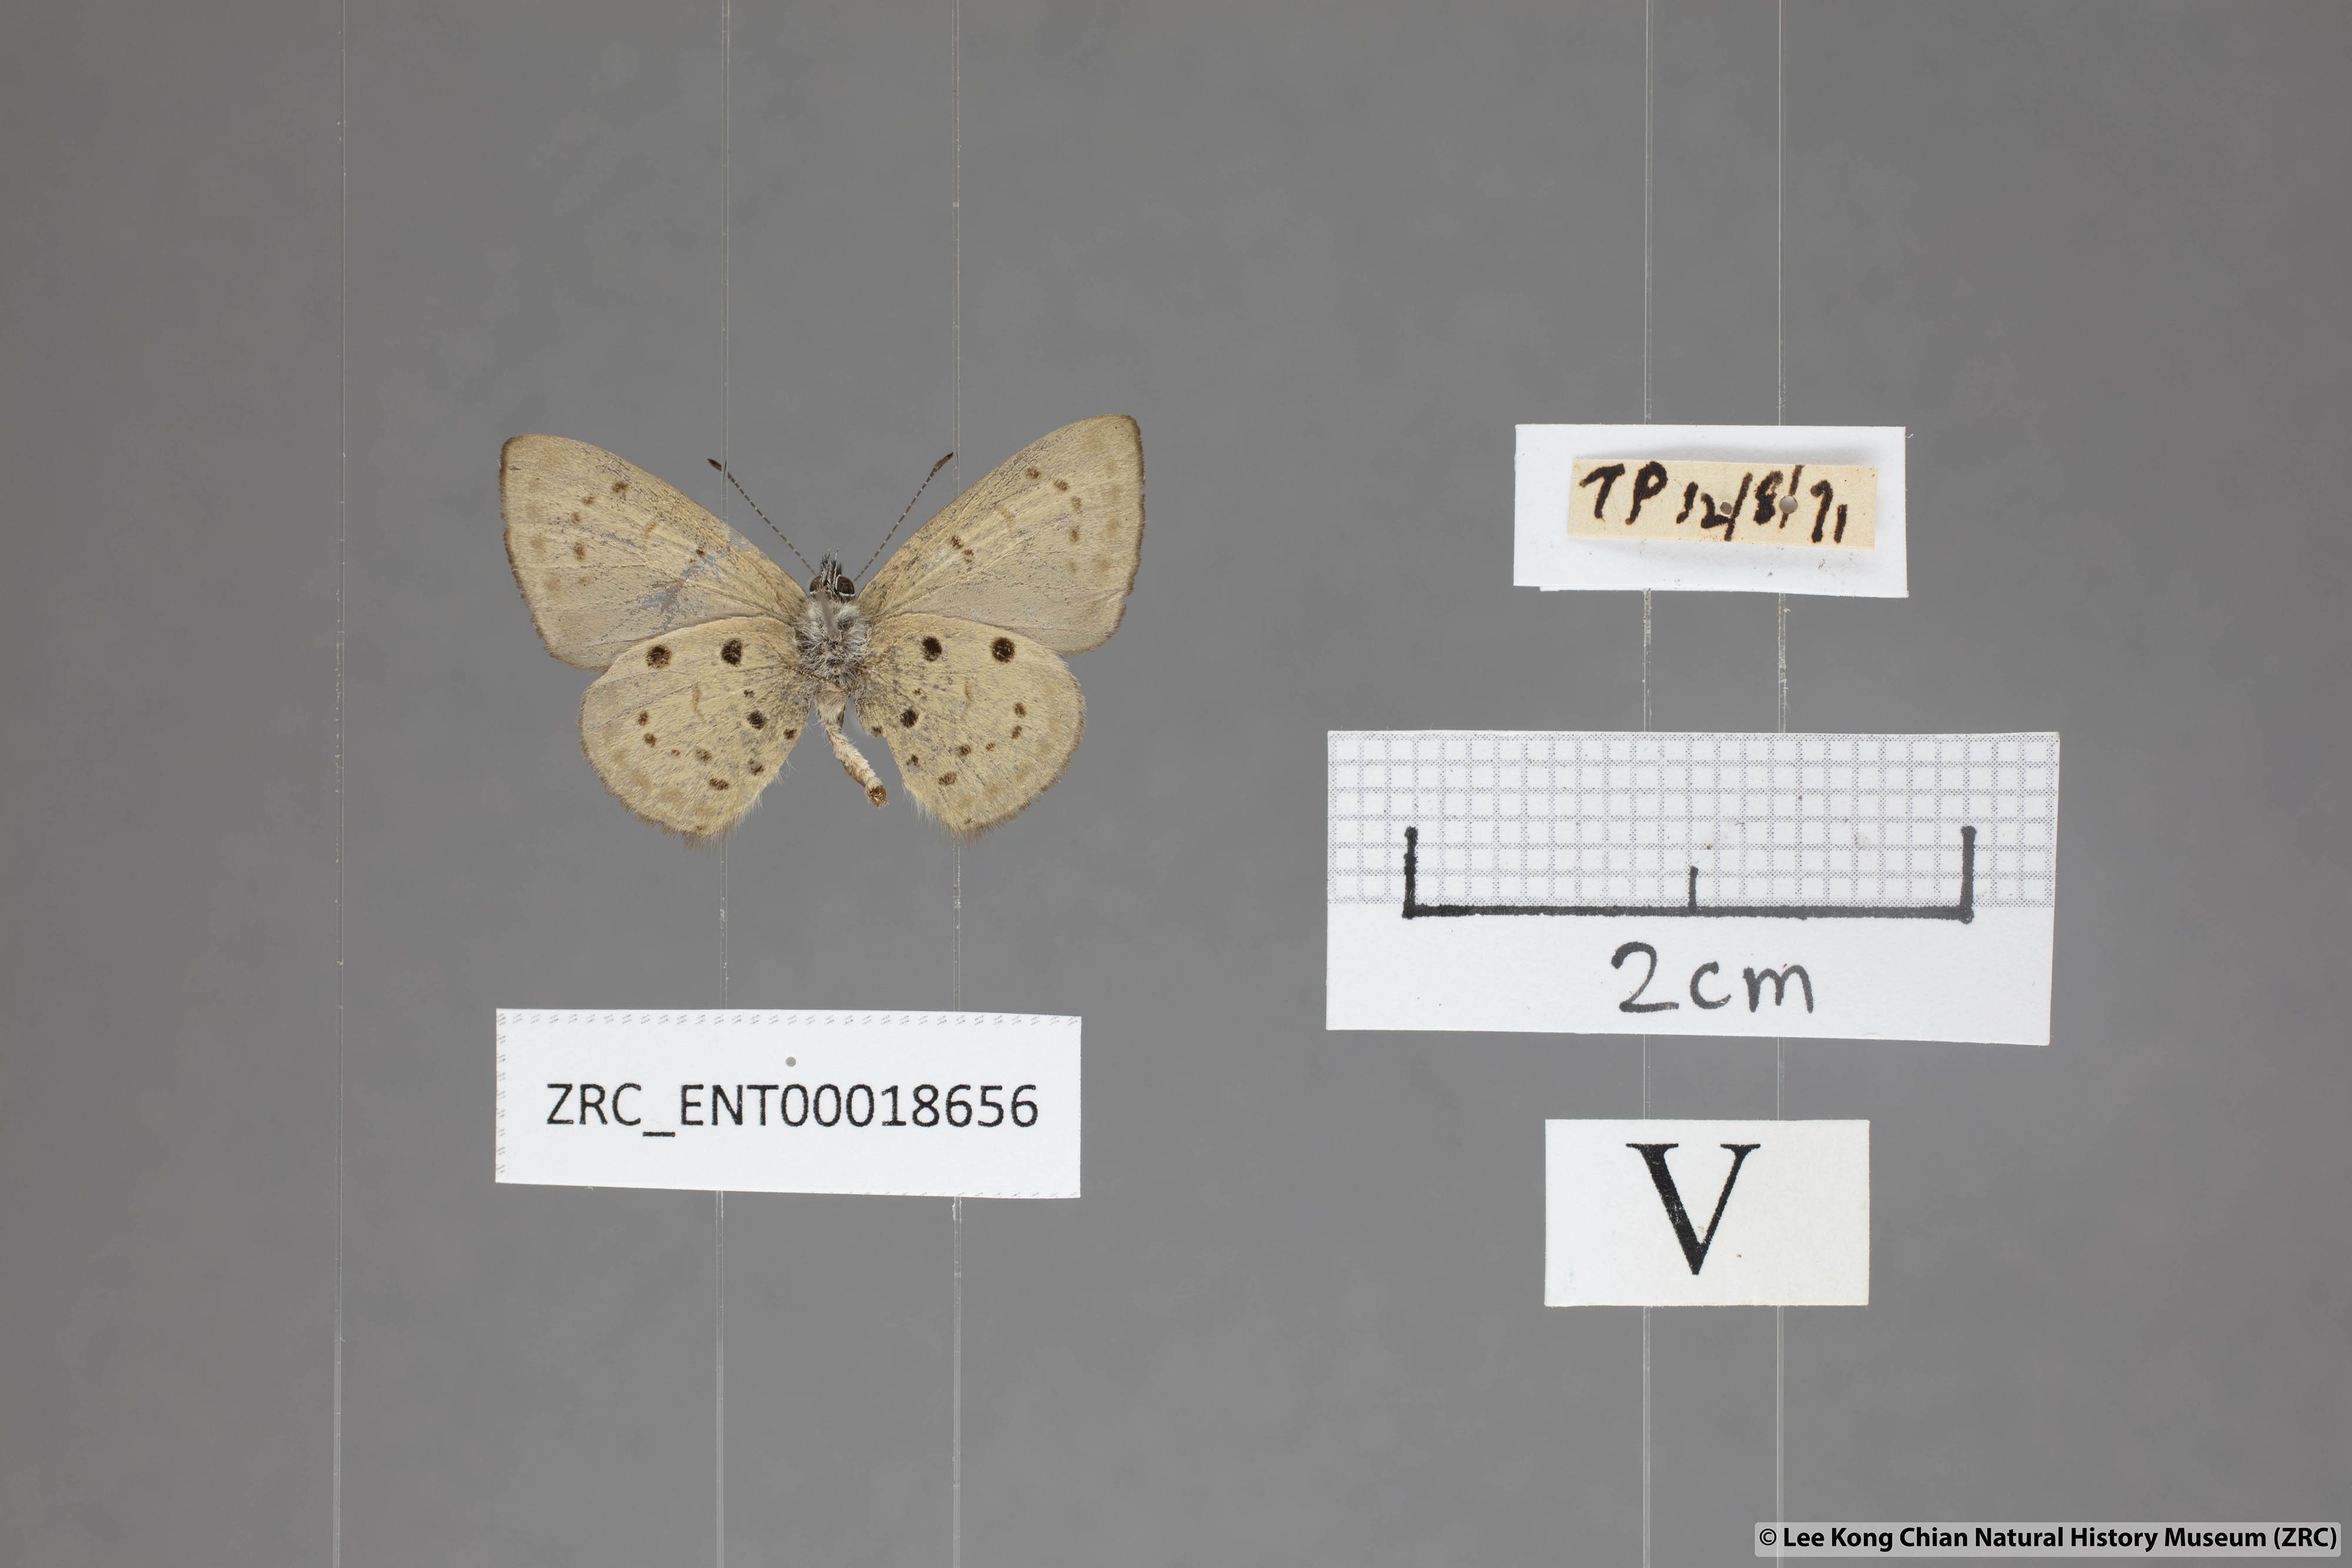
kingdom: Animalia
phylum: Arthropoda
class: Insecta
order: Lepidoptera
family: Lycaenidae
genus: Una
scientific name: Una usta
